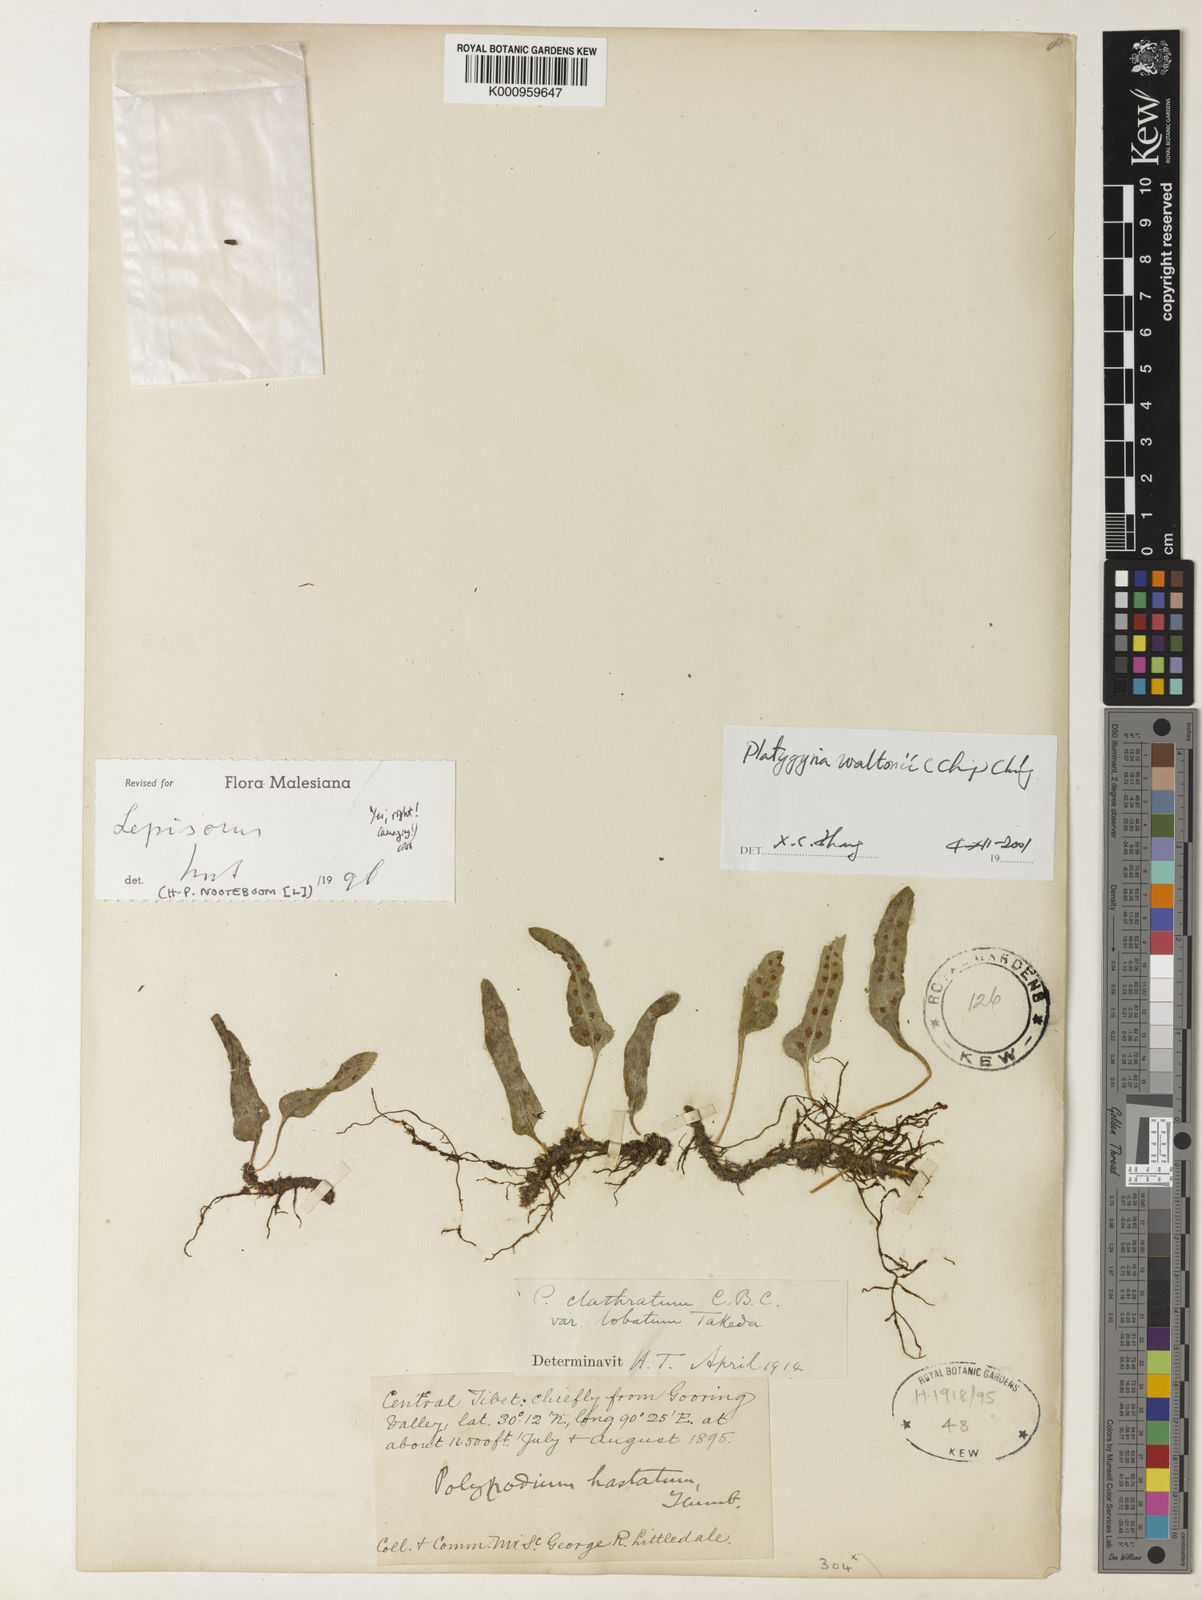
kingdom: Plantae
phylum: Tracheophyta
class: Polypodiopsida
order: Polypodiales
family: Polypodiaceae
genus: Lepisorus
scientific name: Lepisorus waltonii
